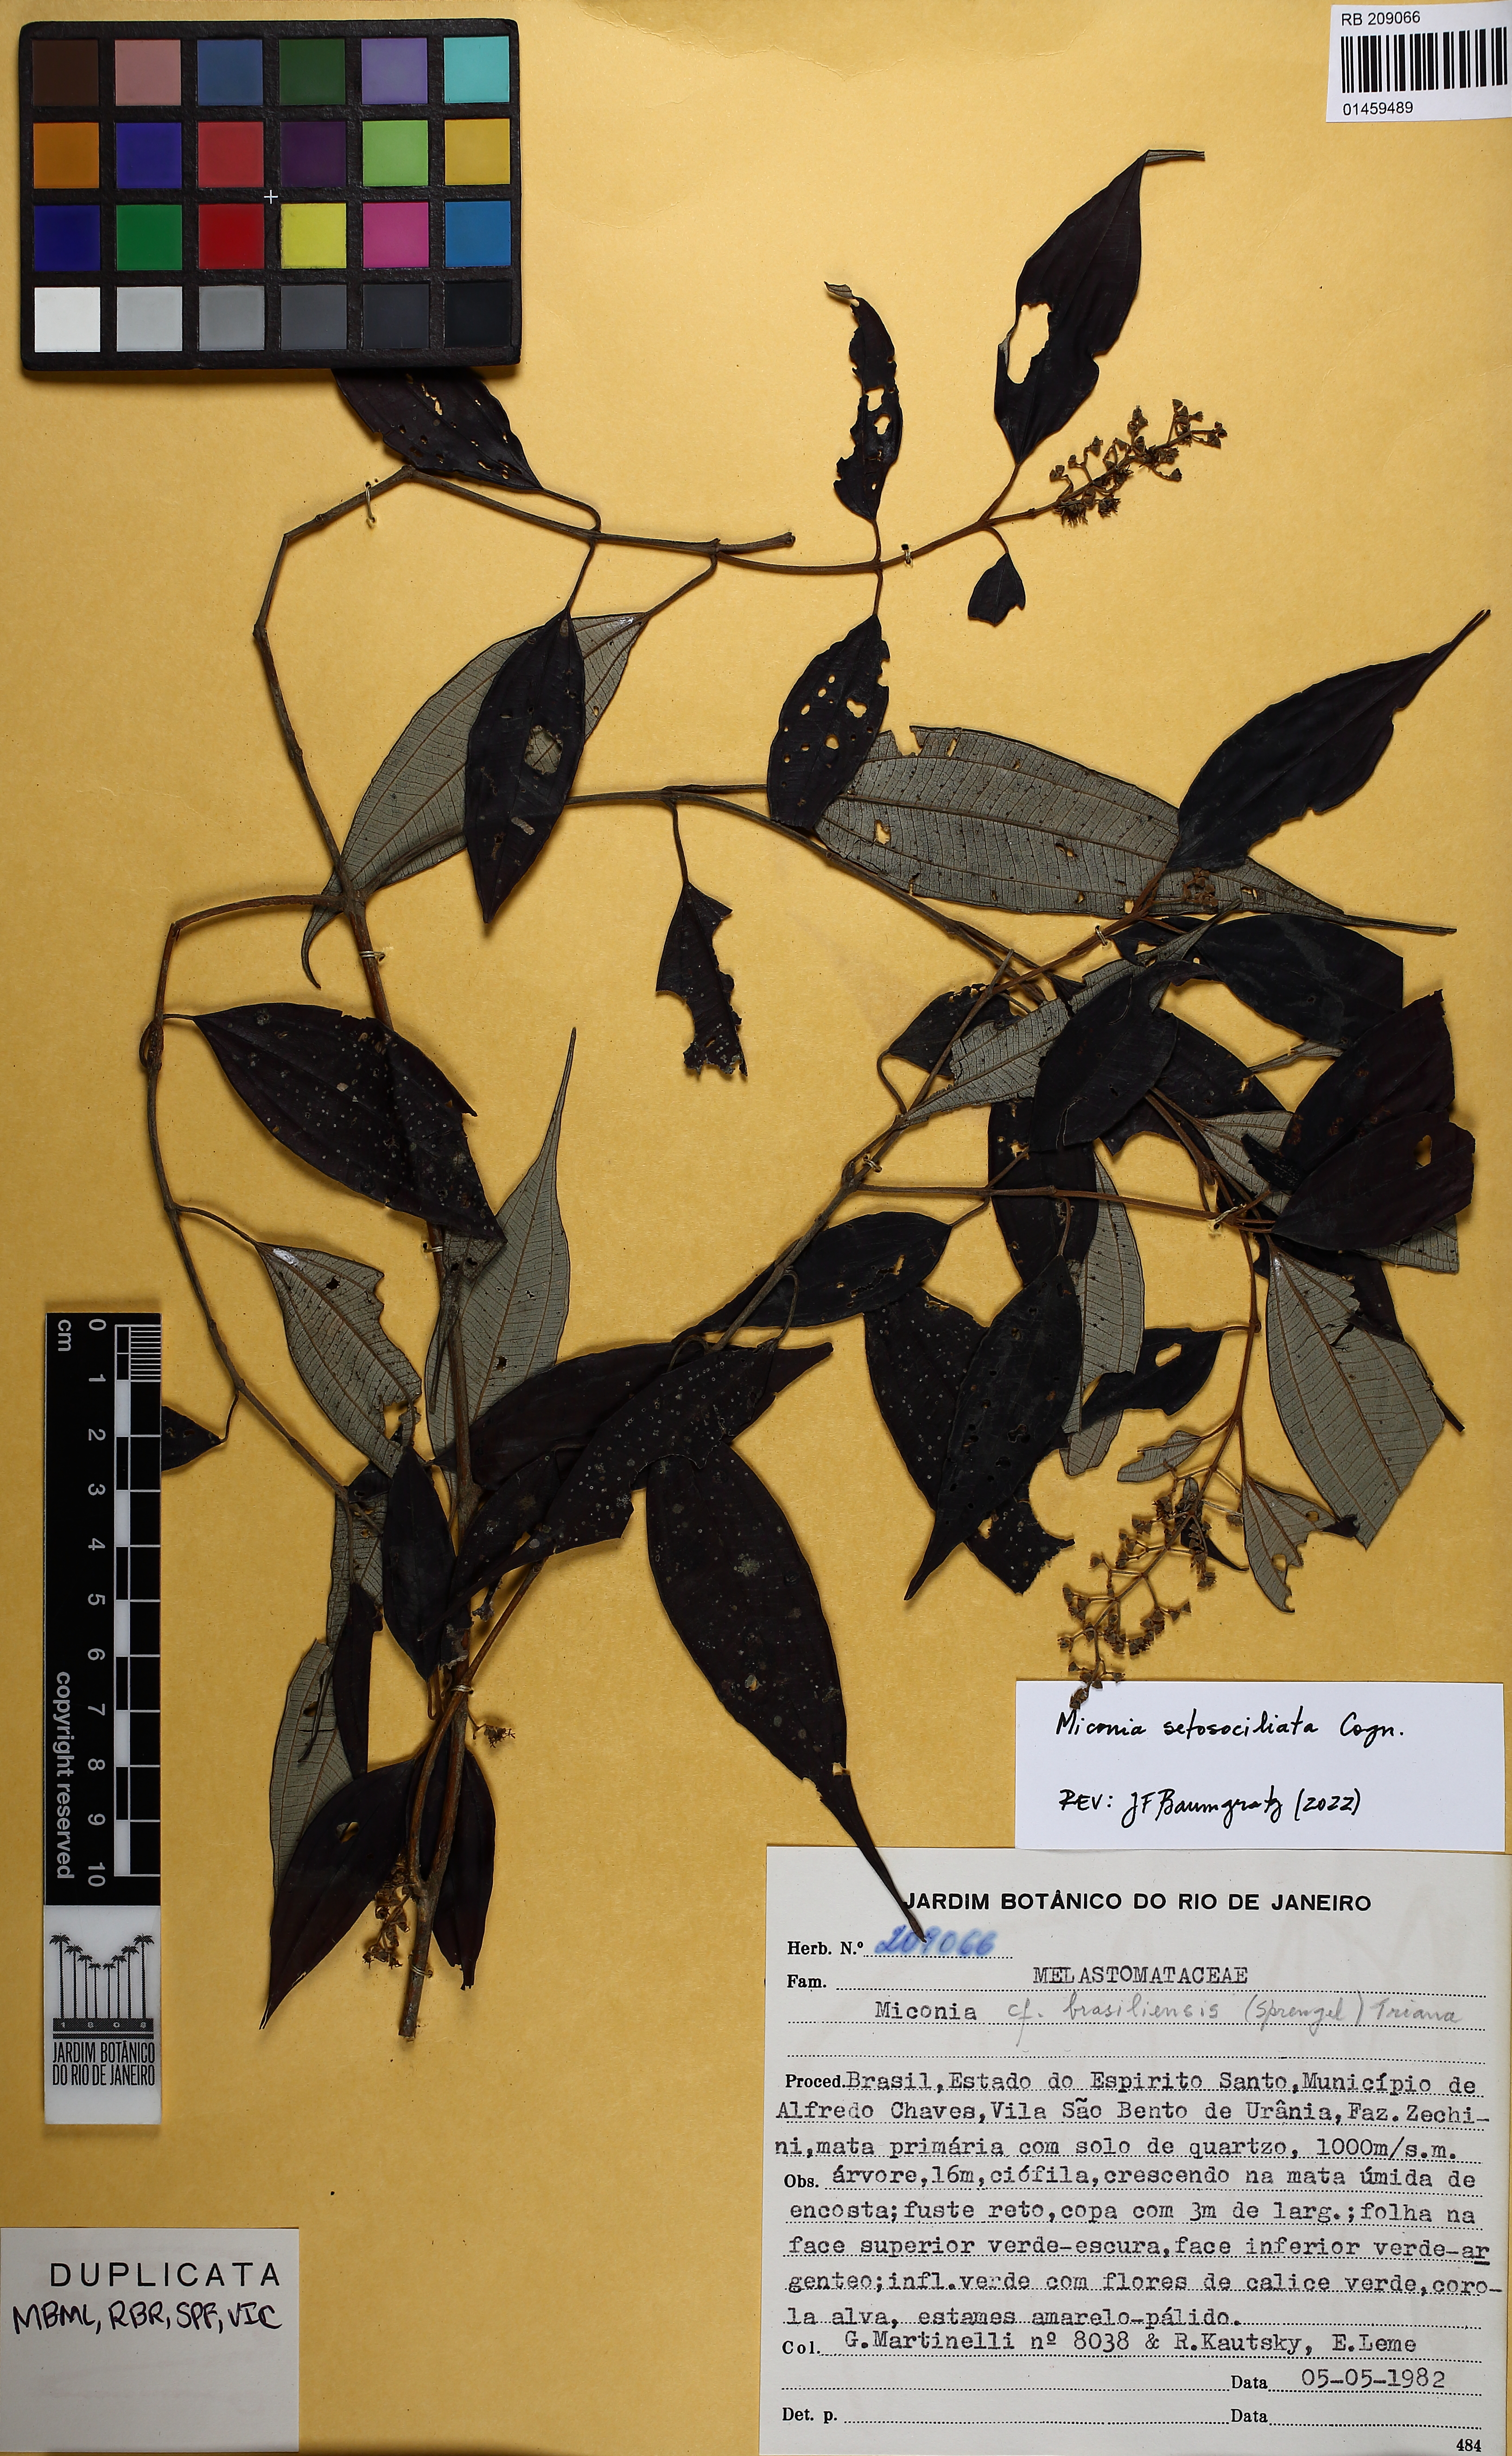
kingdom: Plantae
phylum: Tracheophyta
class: Magnoliopsida
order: Myrtales
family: Melastomataceae
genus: Miconia
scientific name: Miconia setosociliata
